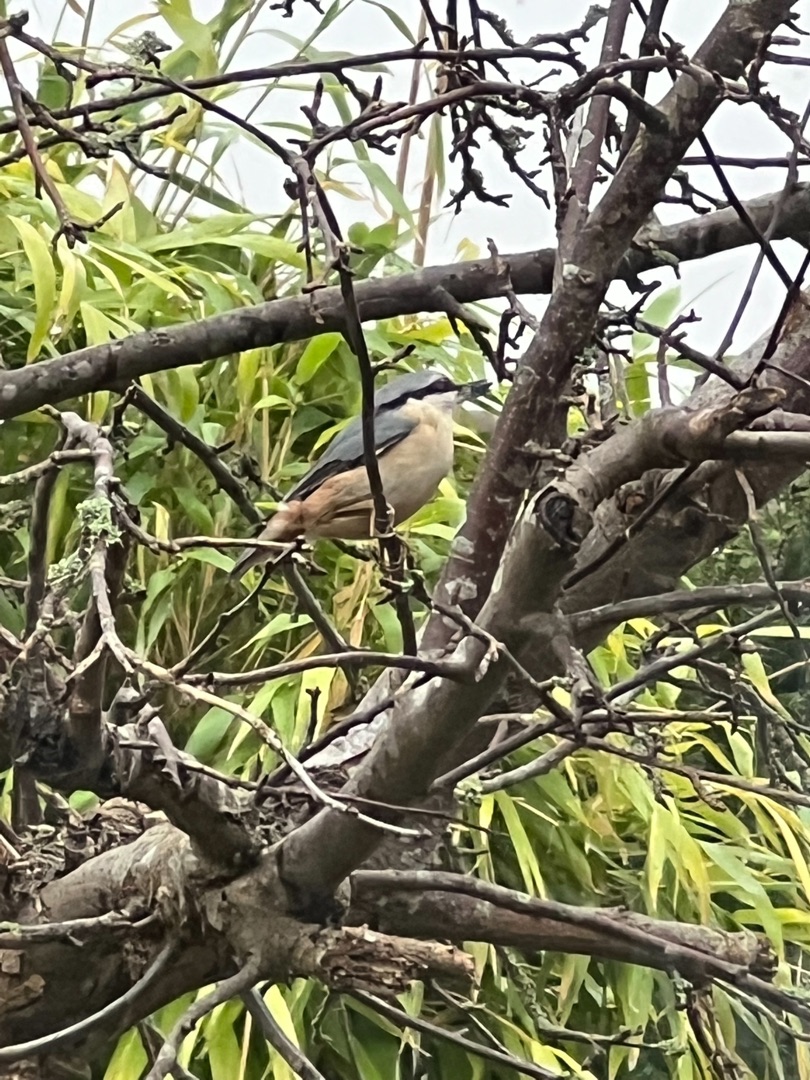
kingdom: Animalia
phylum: Chordata
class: Aves
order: Passeriformes
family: Sittidae
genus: Sitta
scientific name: Sitta europaea
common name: Spætmejse
